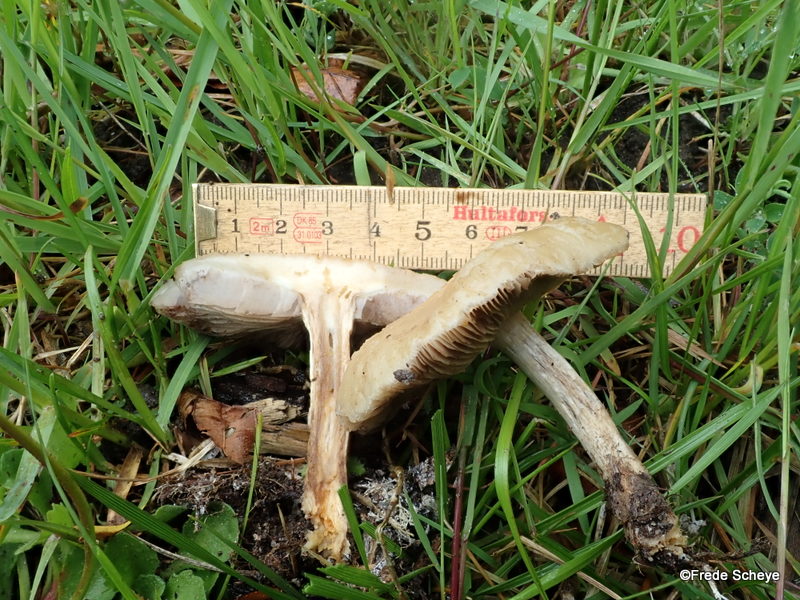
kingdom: Fungi
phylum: Basidiomycota
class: Agaricomycetes
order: Agaricales
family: Strophariaceae
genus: Agrocybe
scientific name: Agrocybe praecox
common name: tidlig agerhat
